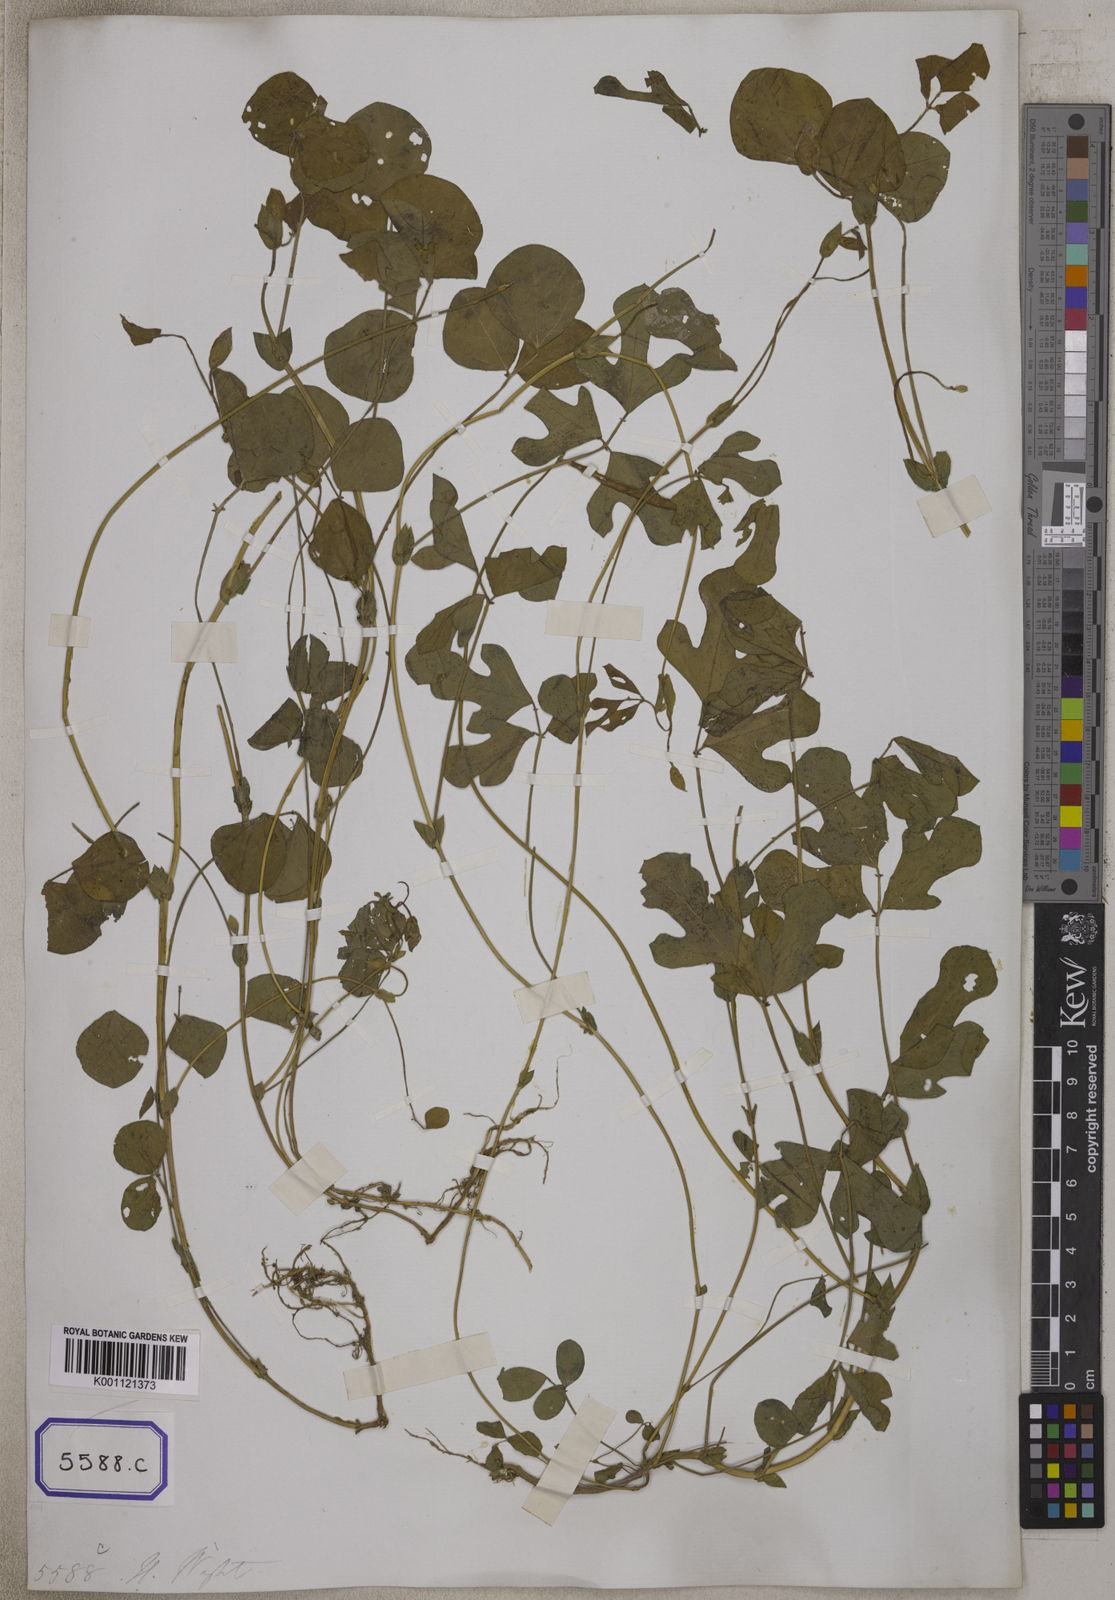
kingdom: Plantae
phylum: Tracheophyta
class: Magnoliopsida
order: Fabales
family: Fabaceae
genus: Phaseolus
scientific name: Phaseolus
